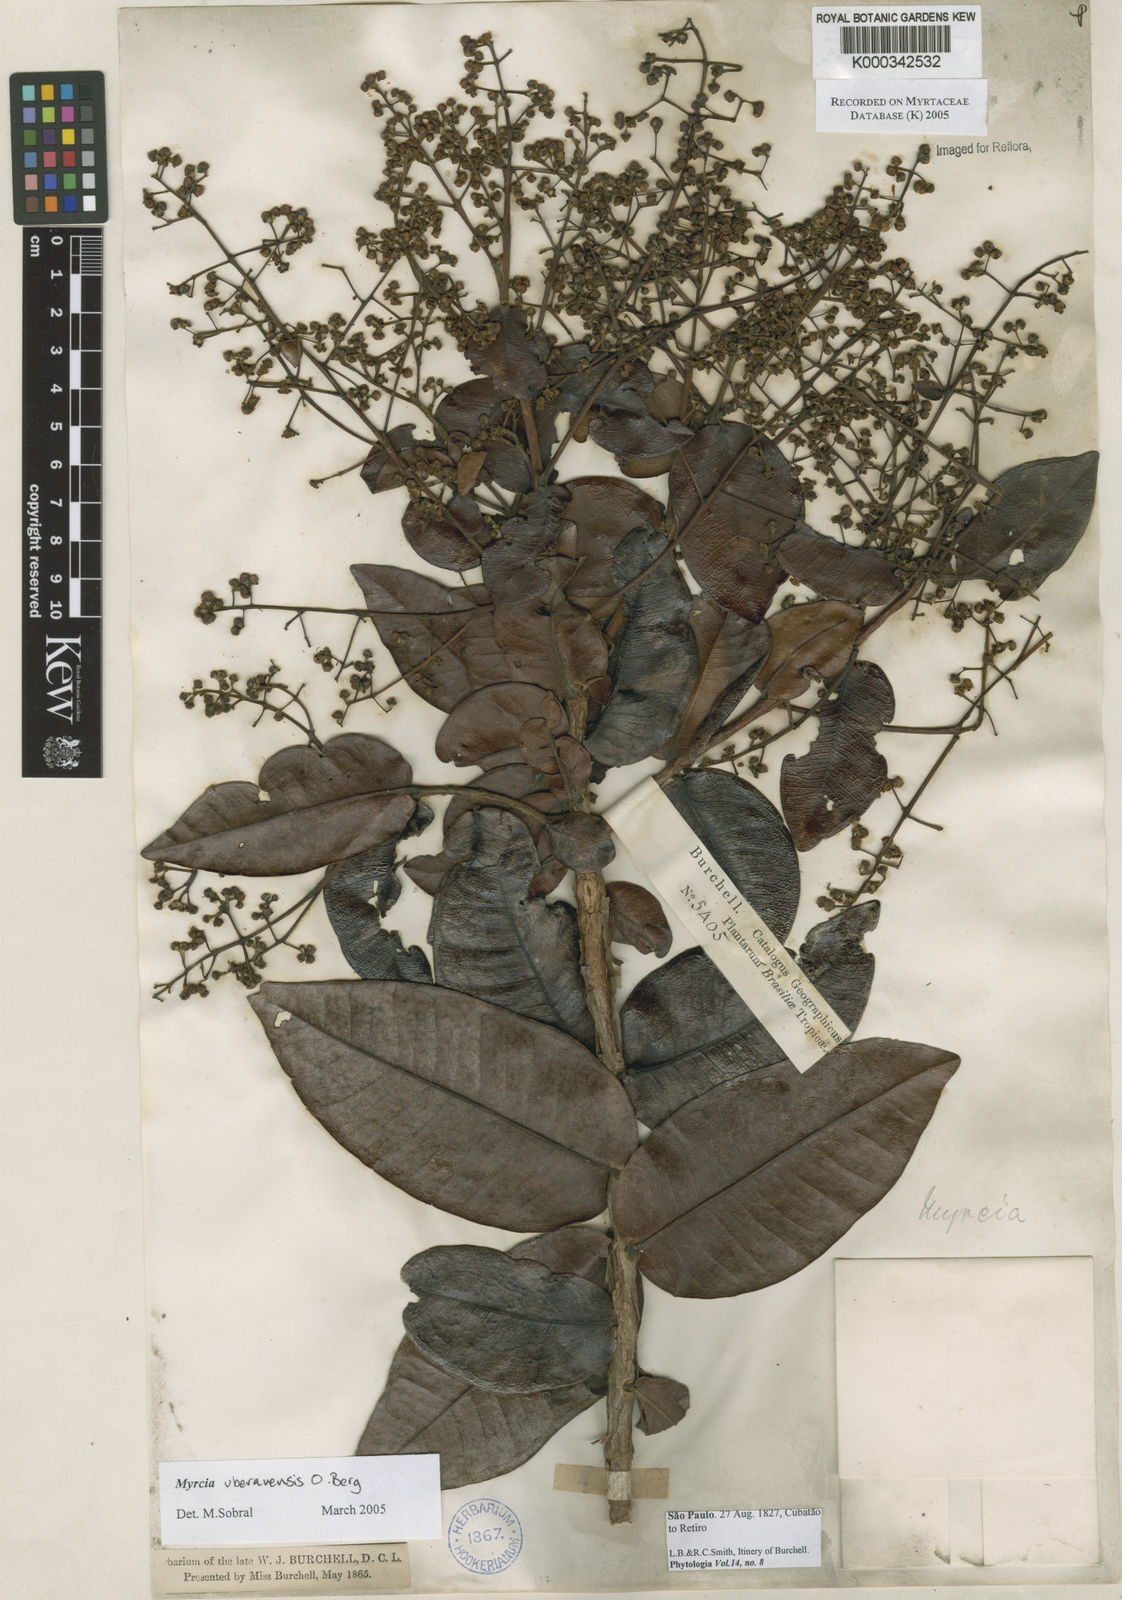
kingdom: Plantae
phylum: Tracheophyta
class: Magnoliopsida
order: Myrtales
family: Myrtaceae
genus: Myrcia
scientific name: Myrcia uberavensis
